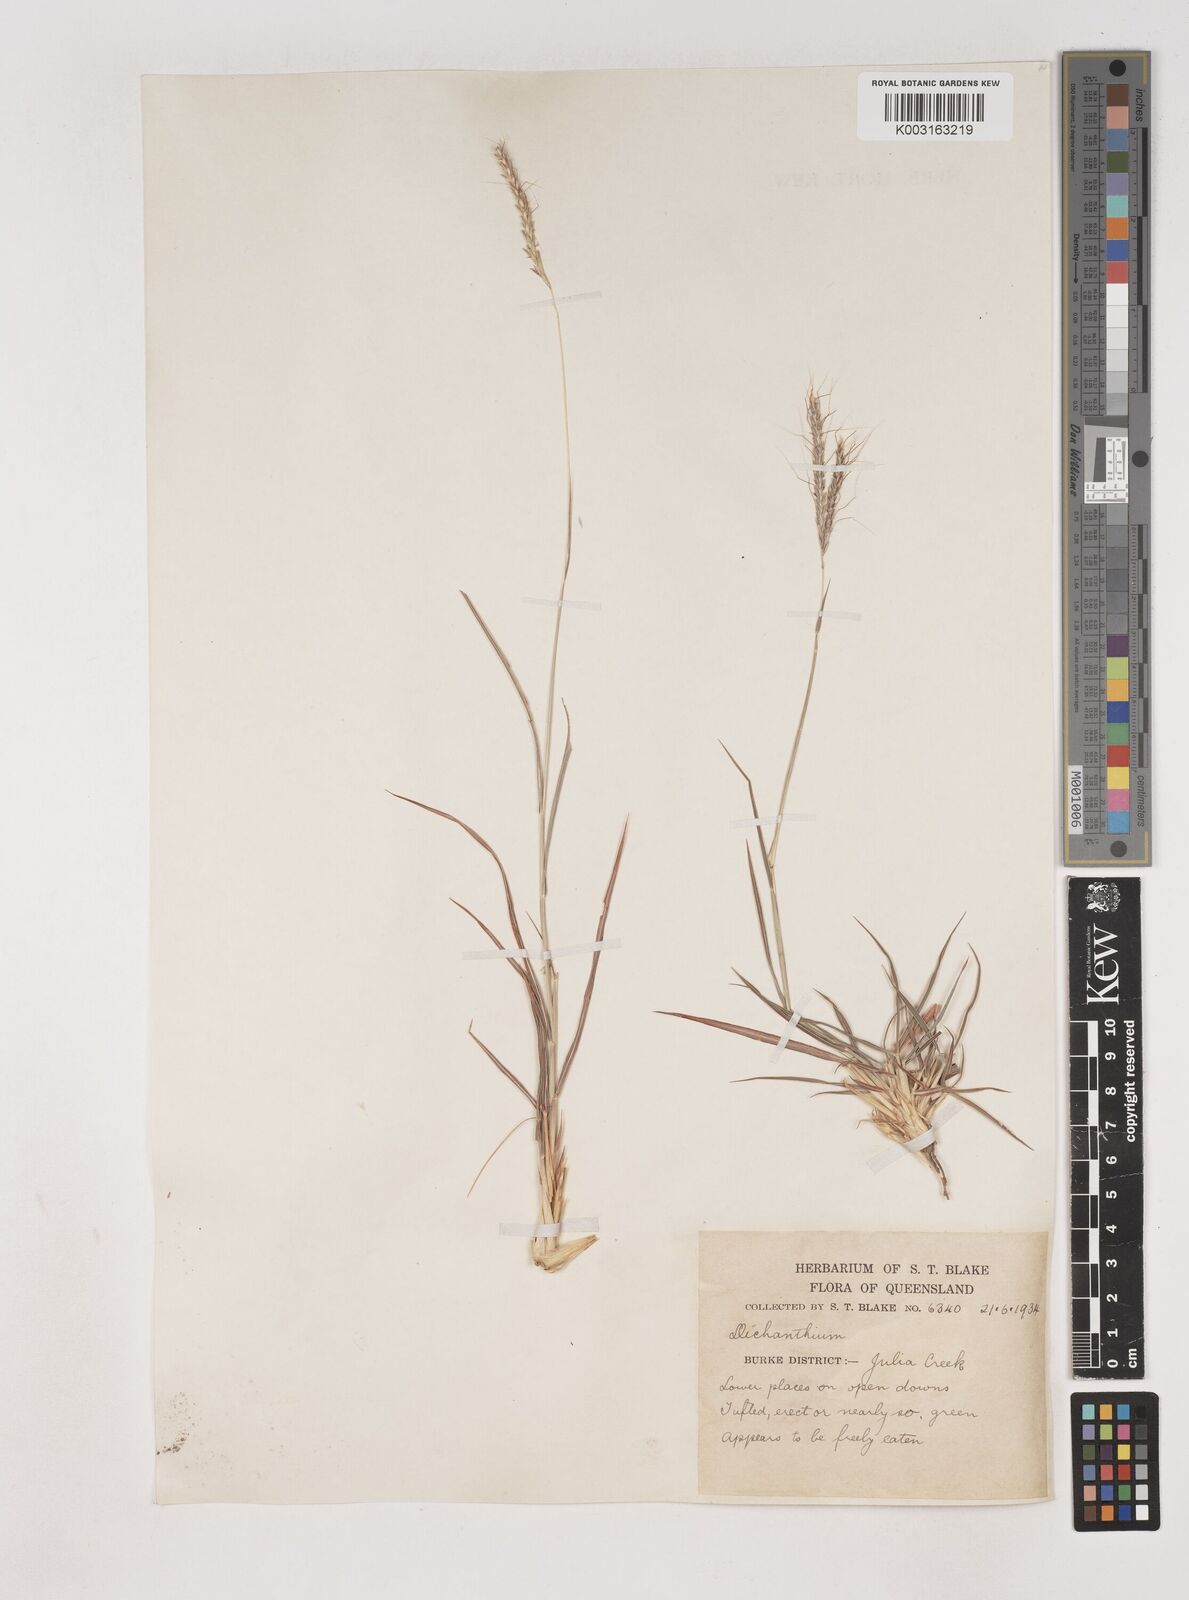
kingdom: Plantae
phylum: Tracheophyta
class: Liliopsida
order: Poales
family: Poaceae
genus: Dichanthium
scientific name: Dichanthium fecundum
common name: Bundle-bundle
